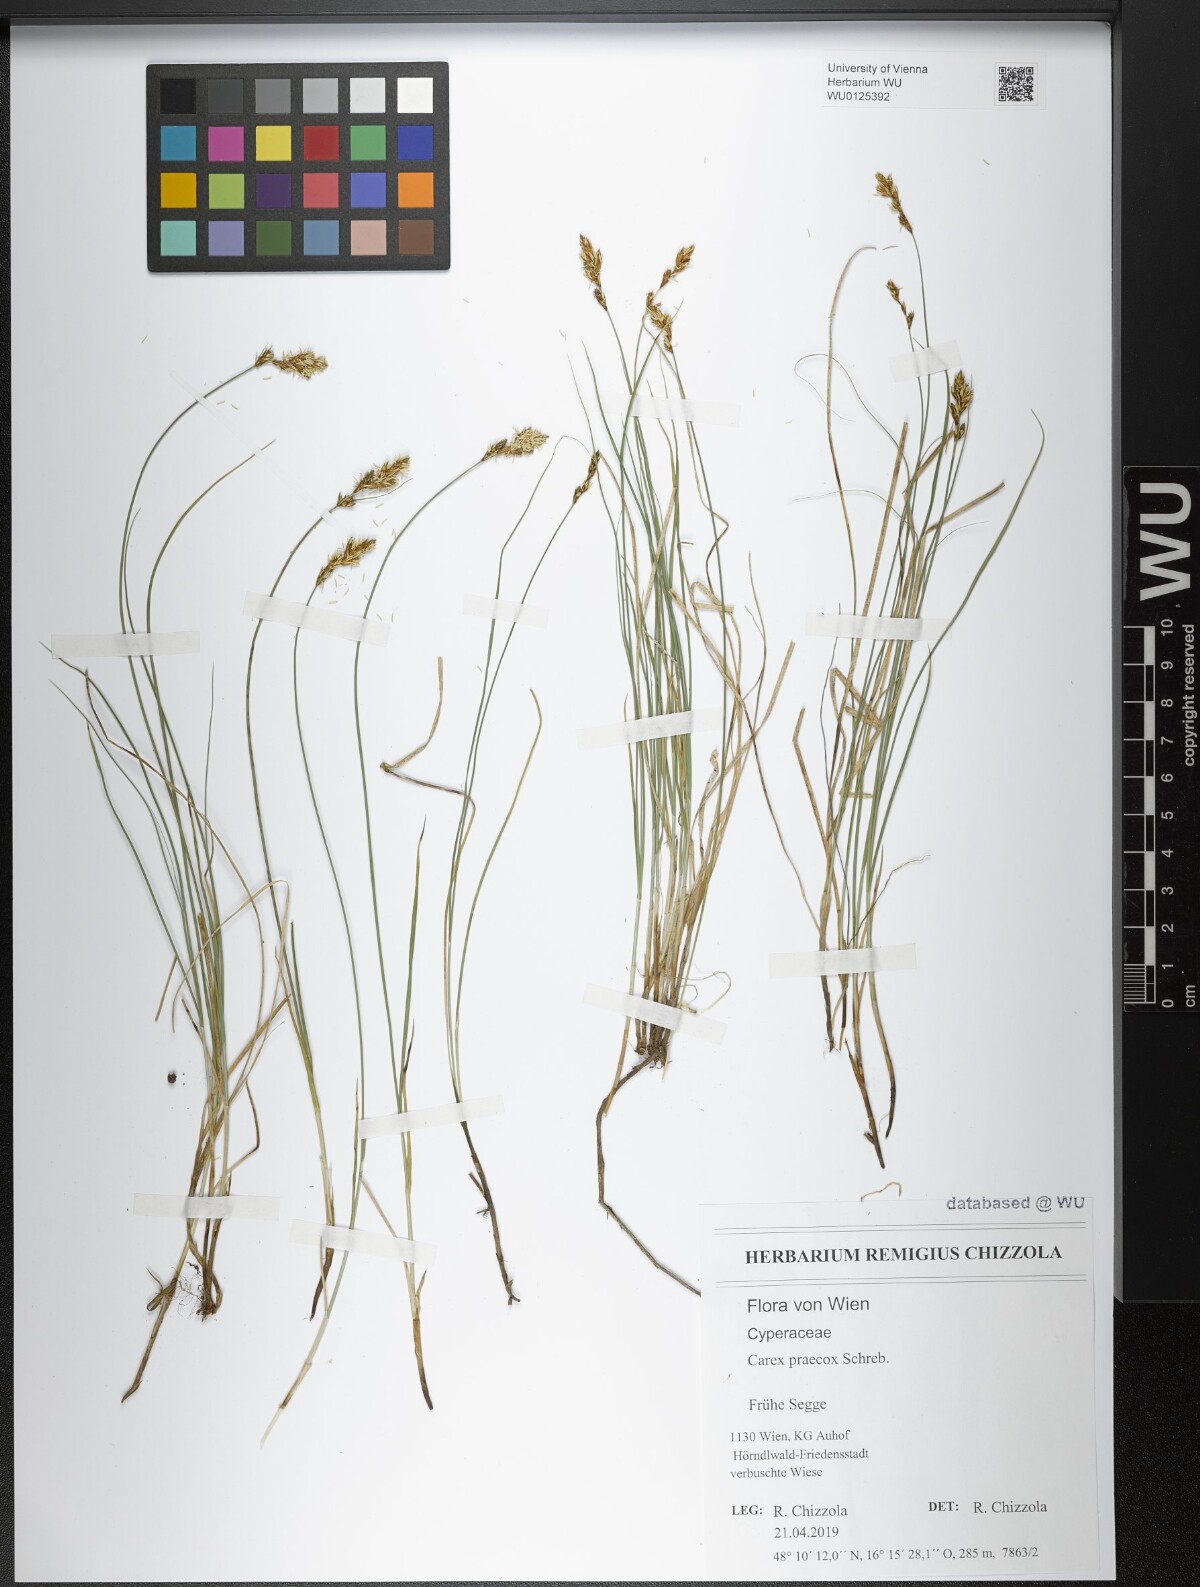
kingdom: Plantae
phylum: Tracheophyta
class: Liliopsida
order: Poales
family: Cyperaceae
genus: Carex
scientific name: Carex praecox
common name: Early sedge
